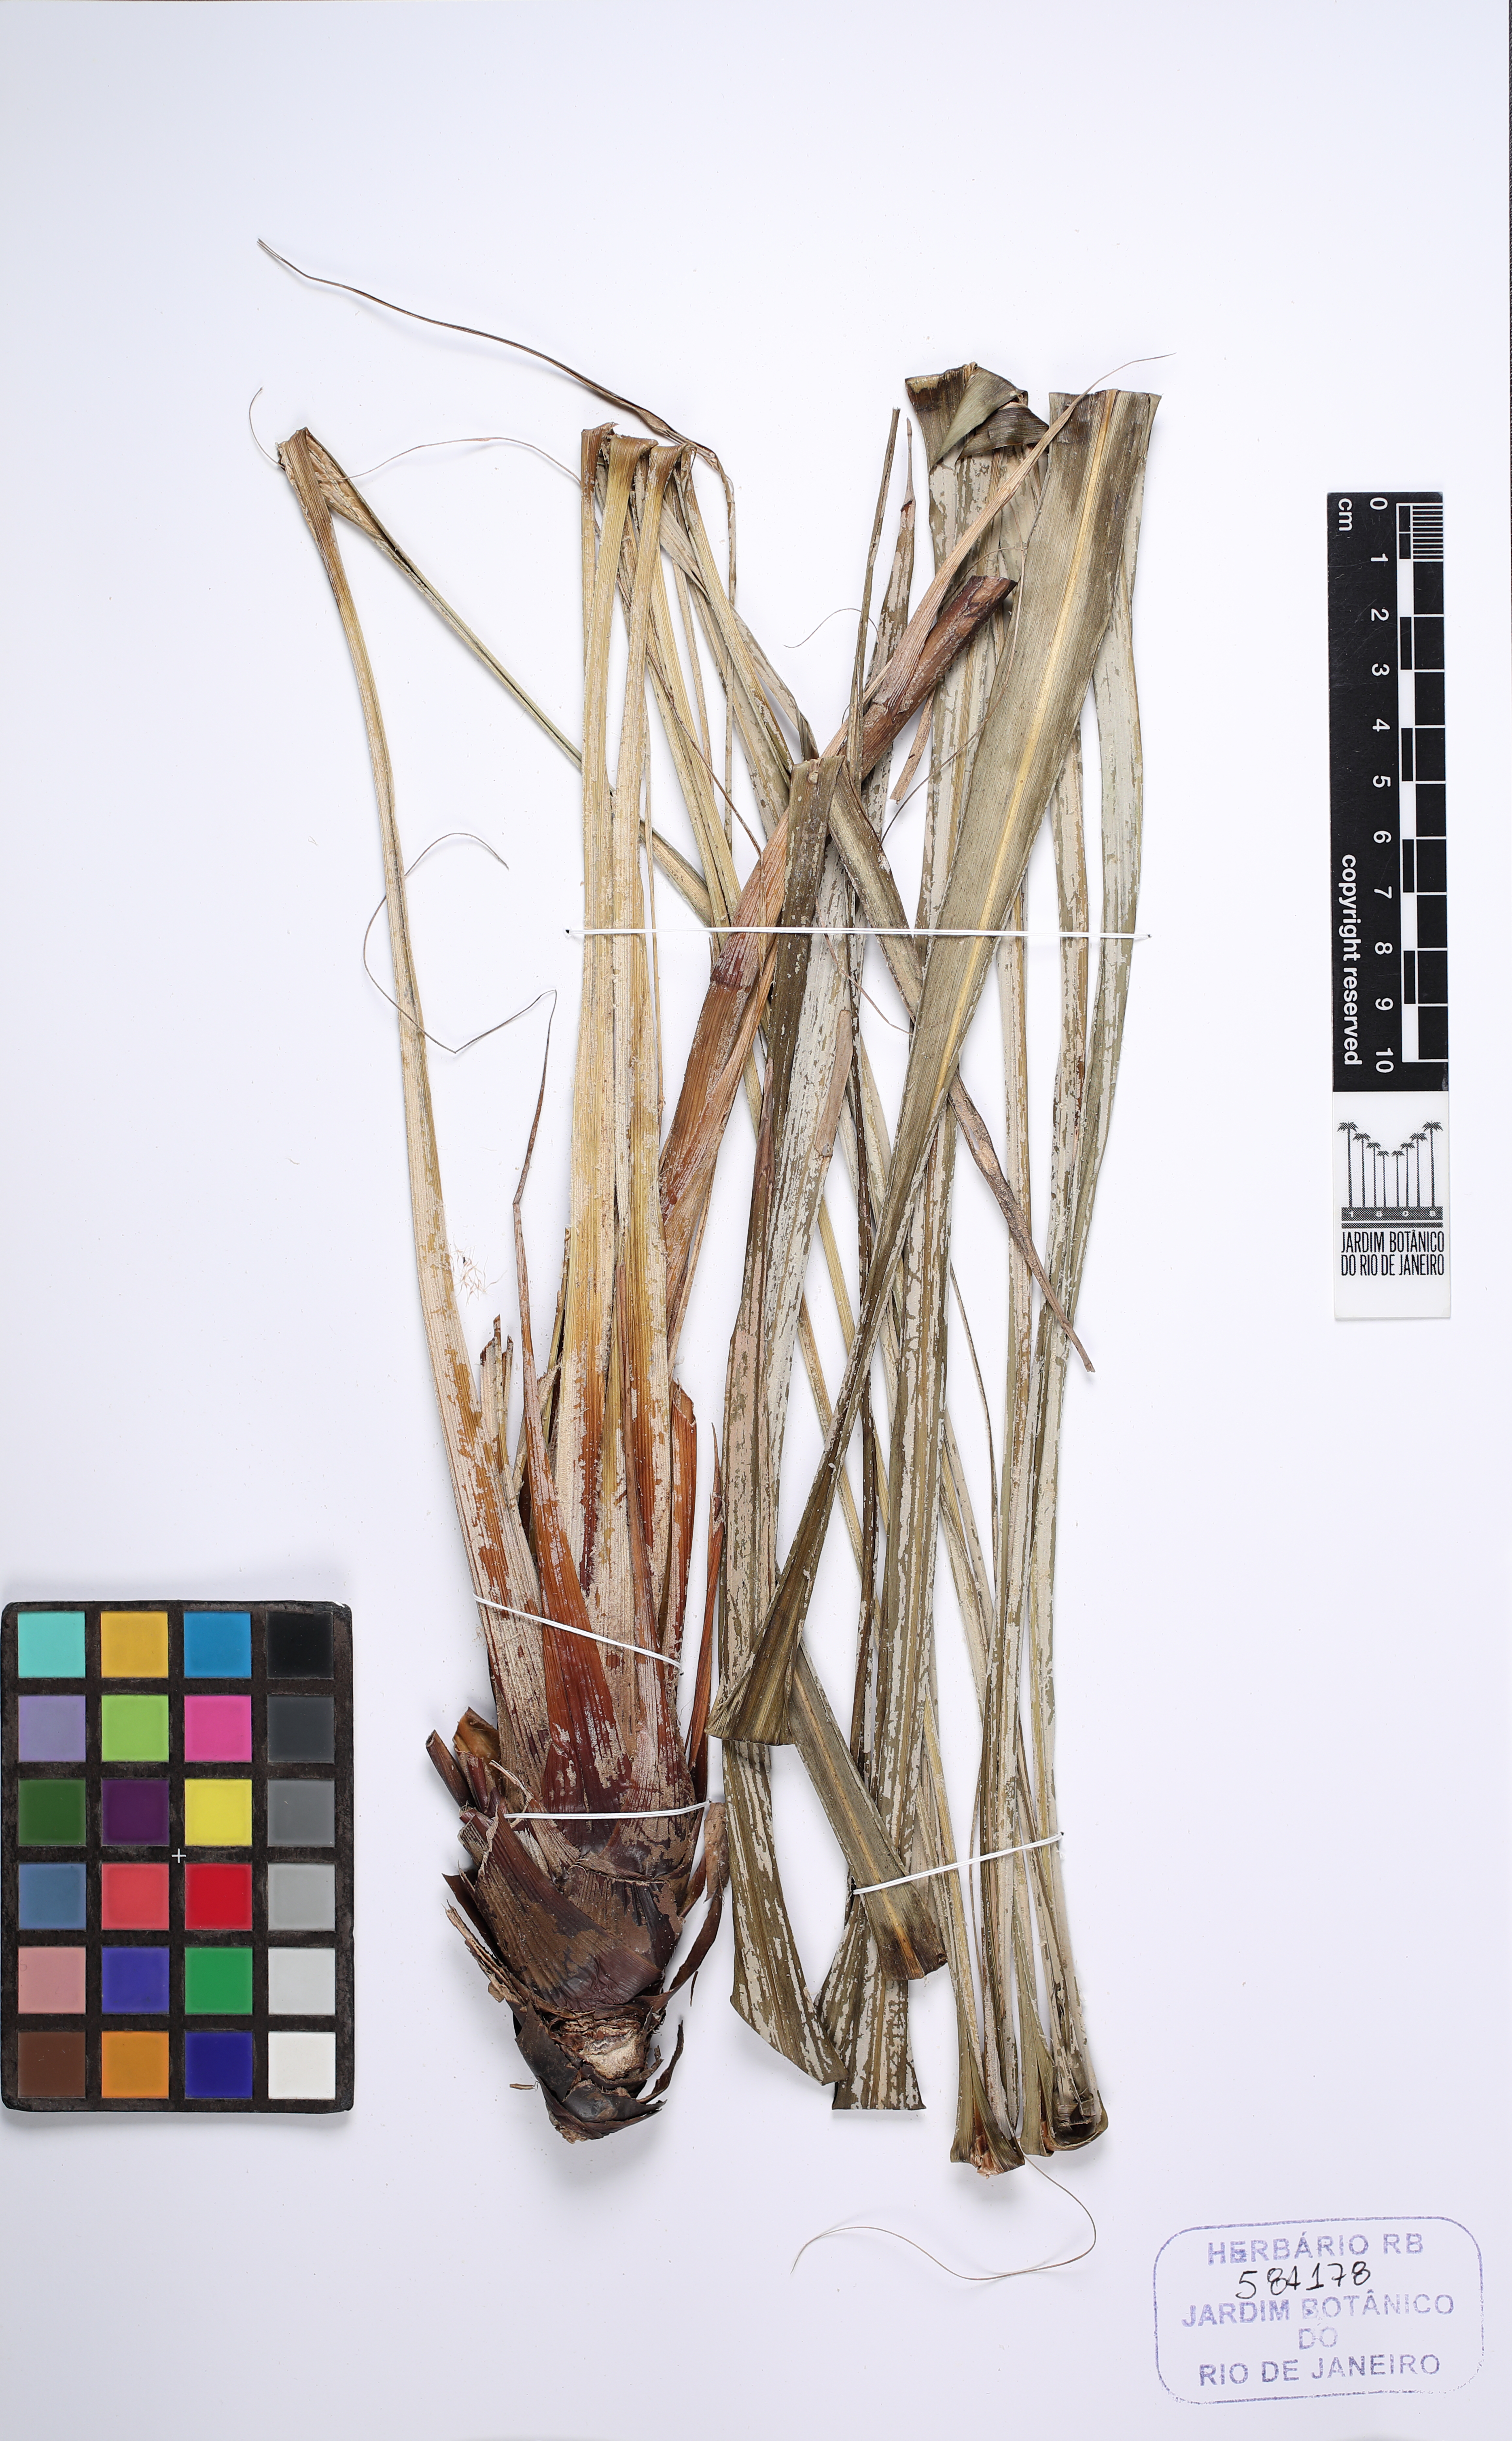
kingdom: Plantae
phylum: Tracheophyta
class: Liliopsida
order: Poales
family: Bromeliaceae
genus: Pitcairnia
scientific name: Pitcairnia
